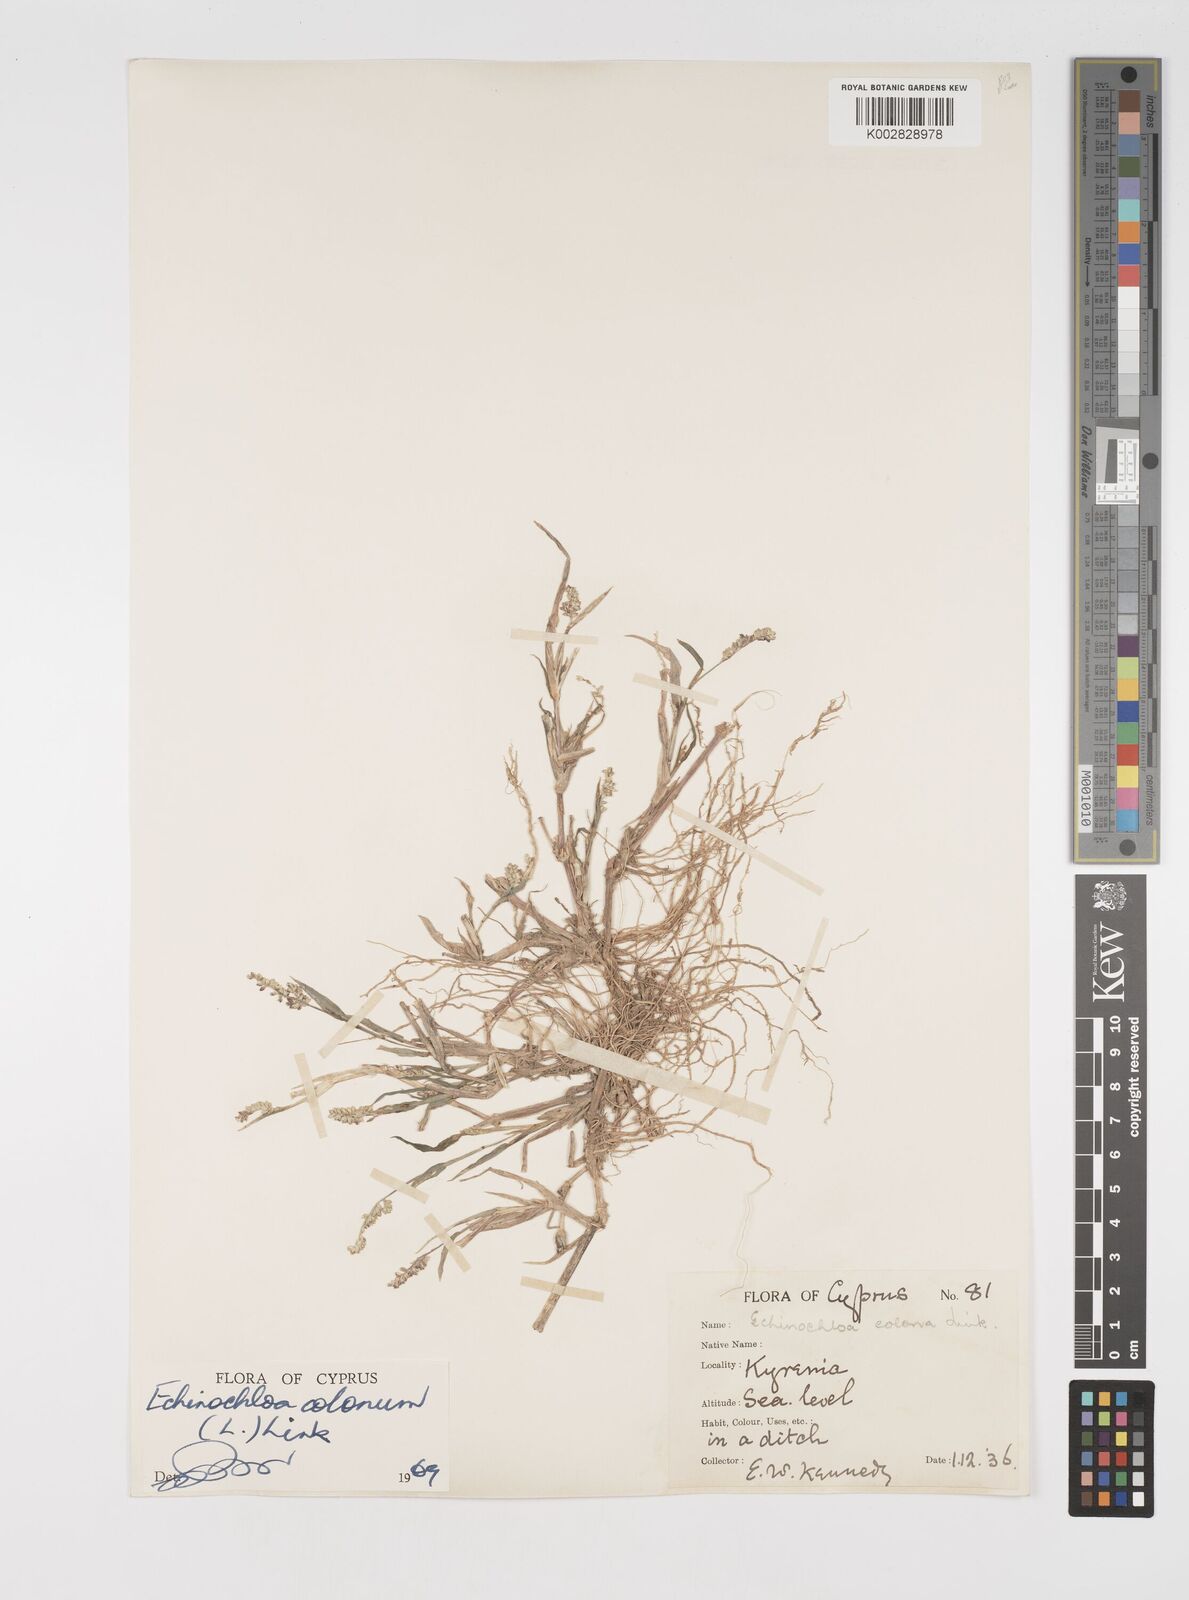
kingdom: Plantae
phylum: Tracheophyta
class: Liliopsida
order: Poales
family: Poaceae
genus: Echinochloa
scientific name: Echinochloa colonum
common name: Jungle rice
